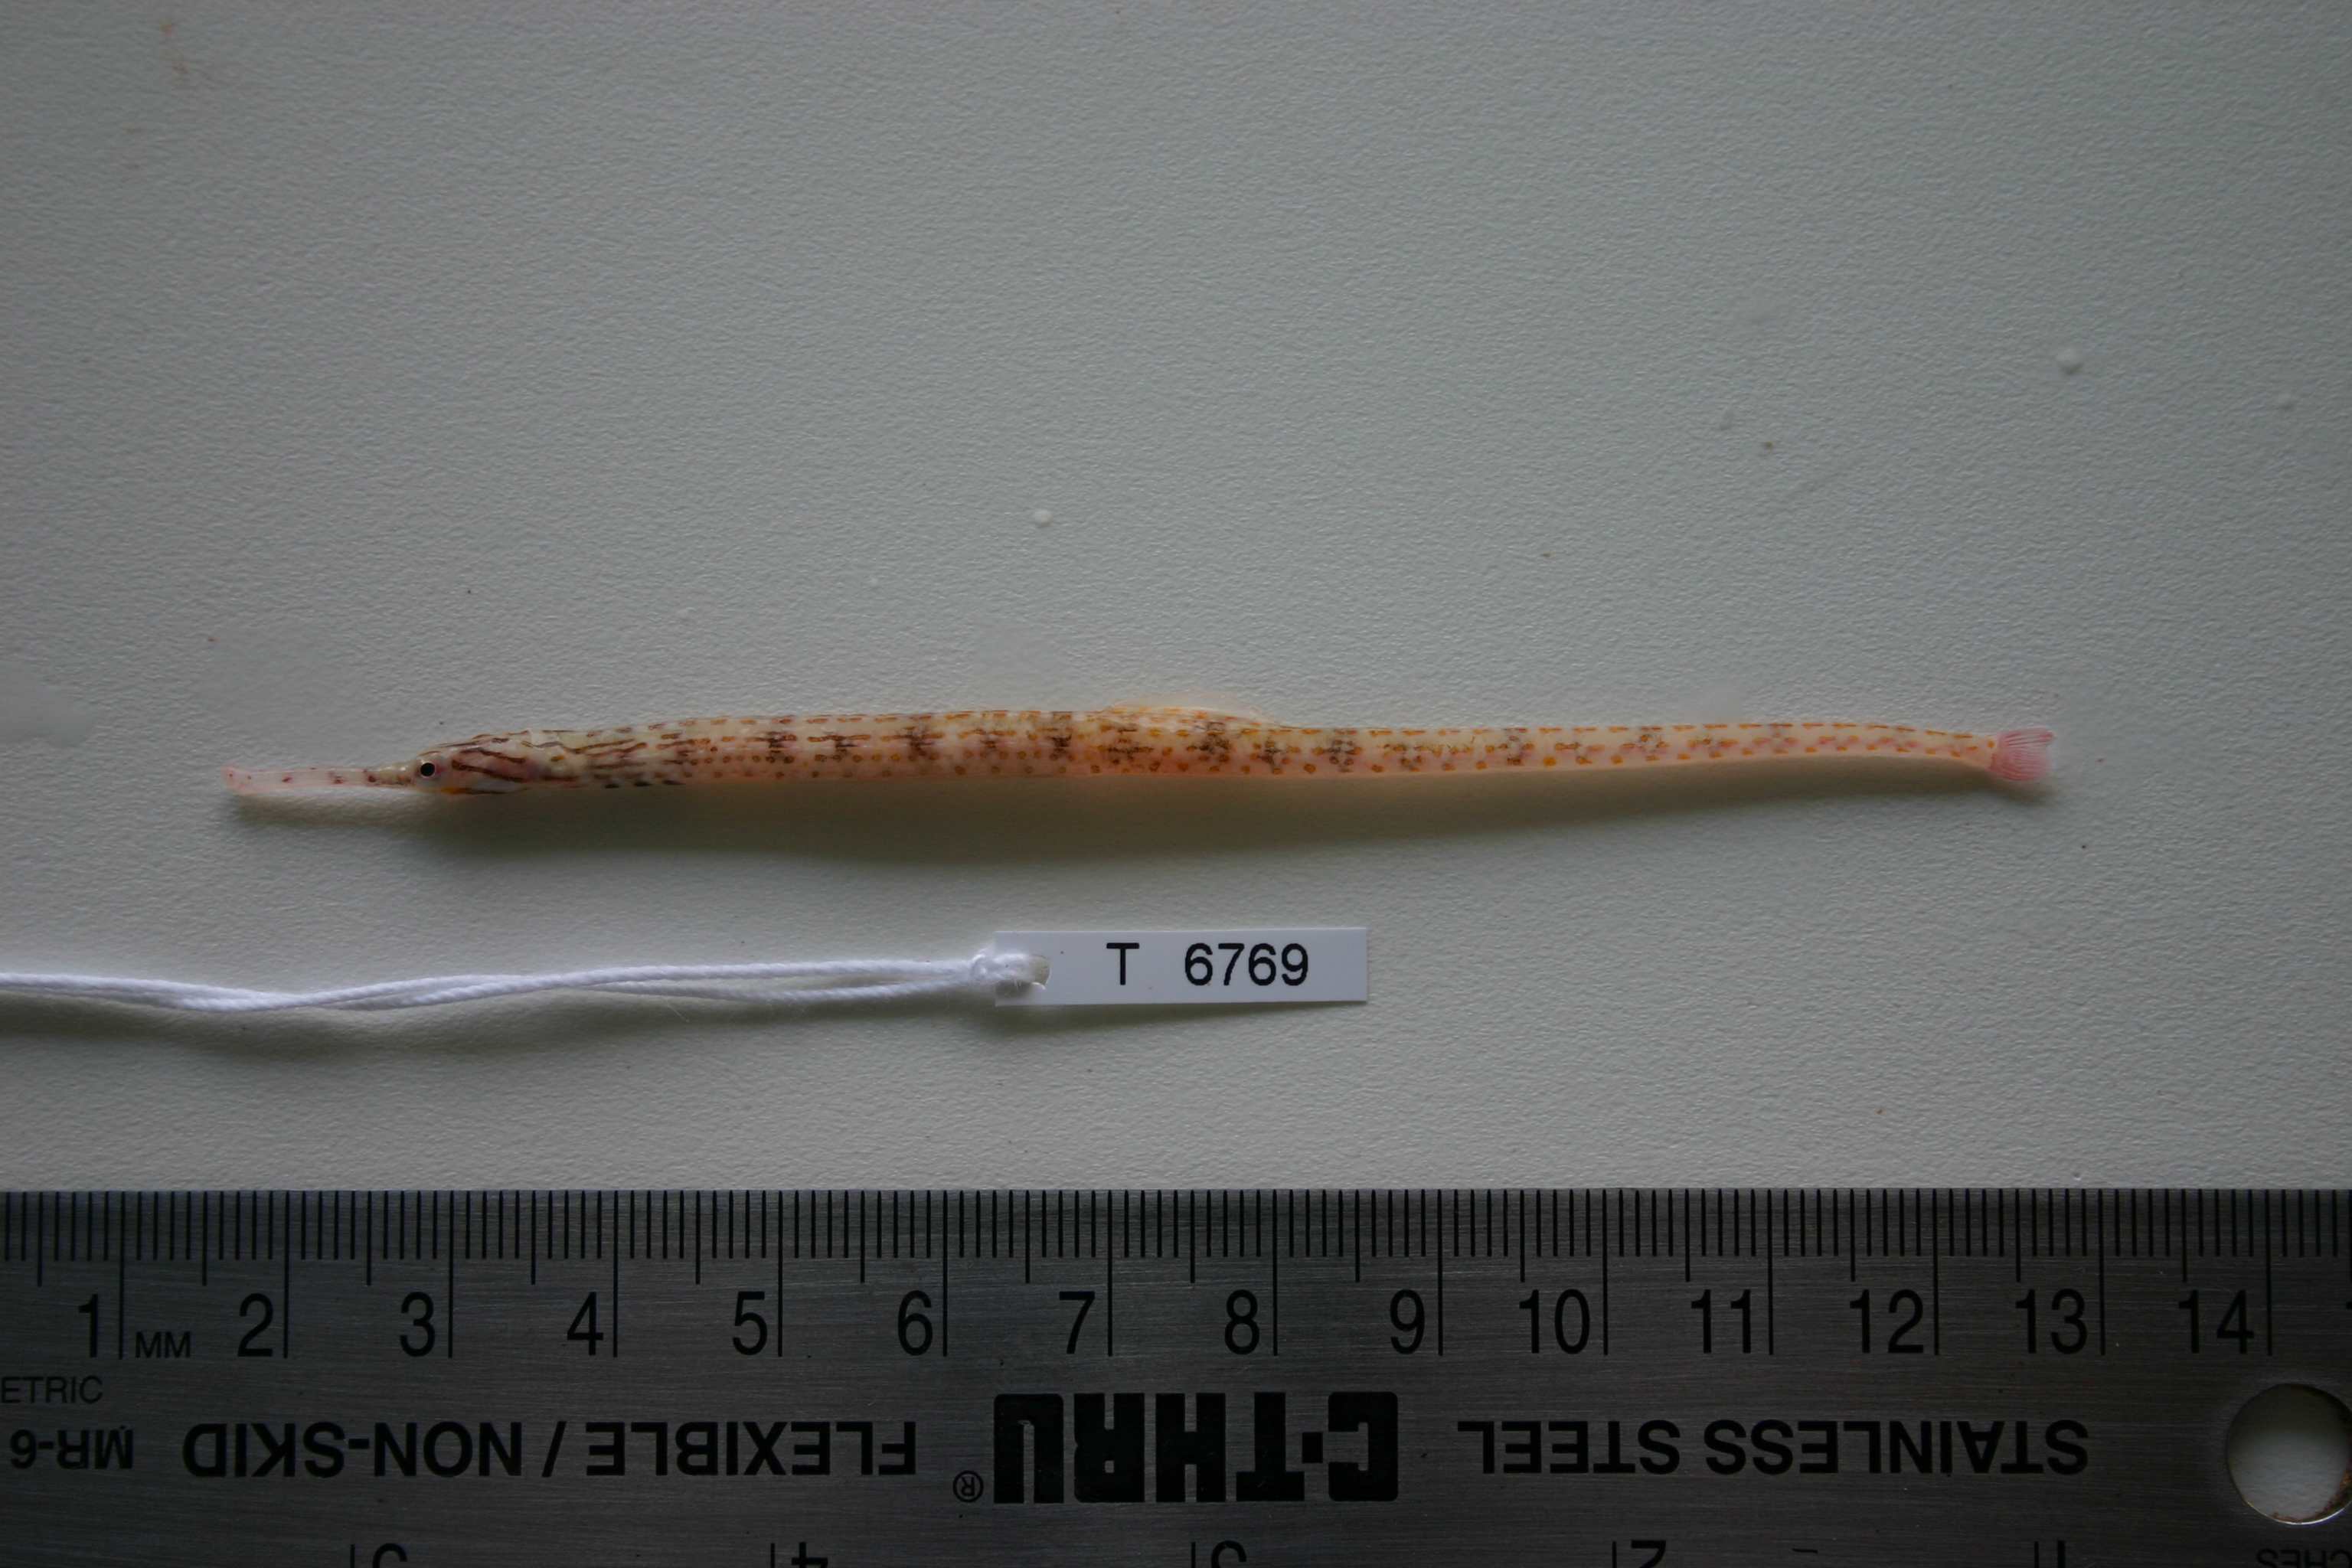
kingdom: Animalia
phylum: Chordata
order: Syngnathiformes
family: Syngnathidae
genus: Corythoichthys
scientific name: Corythoichthys schultzi
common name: Guilded pipefish
